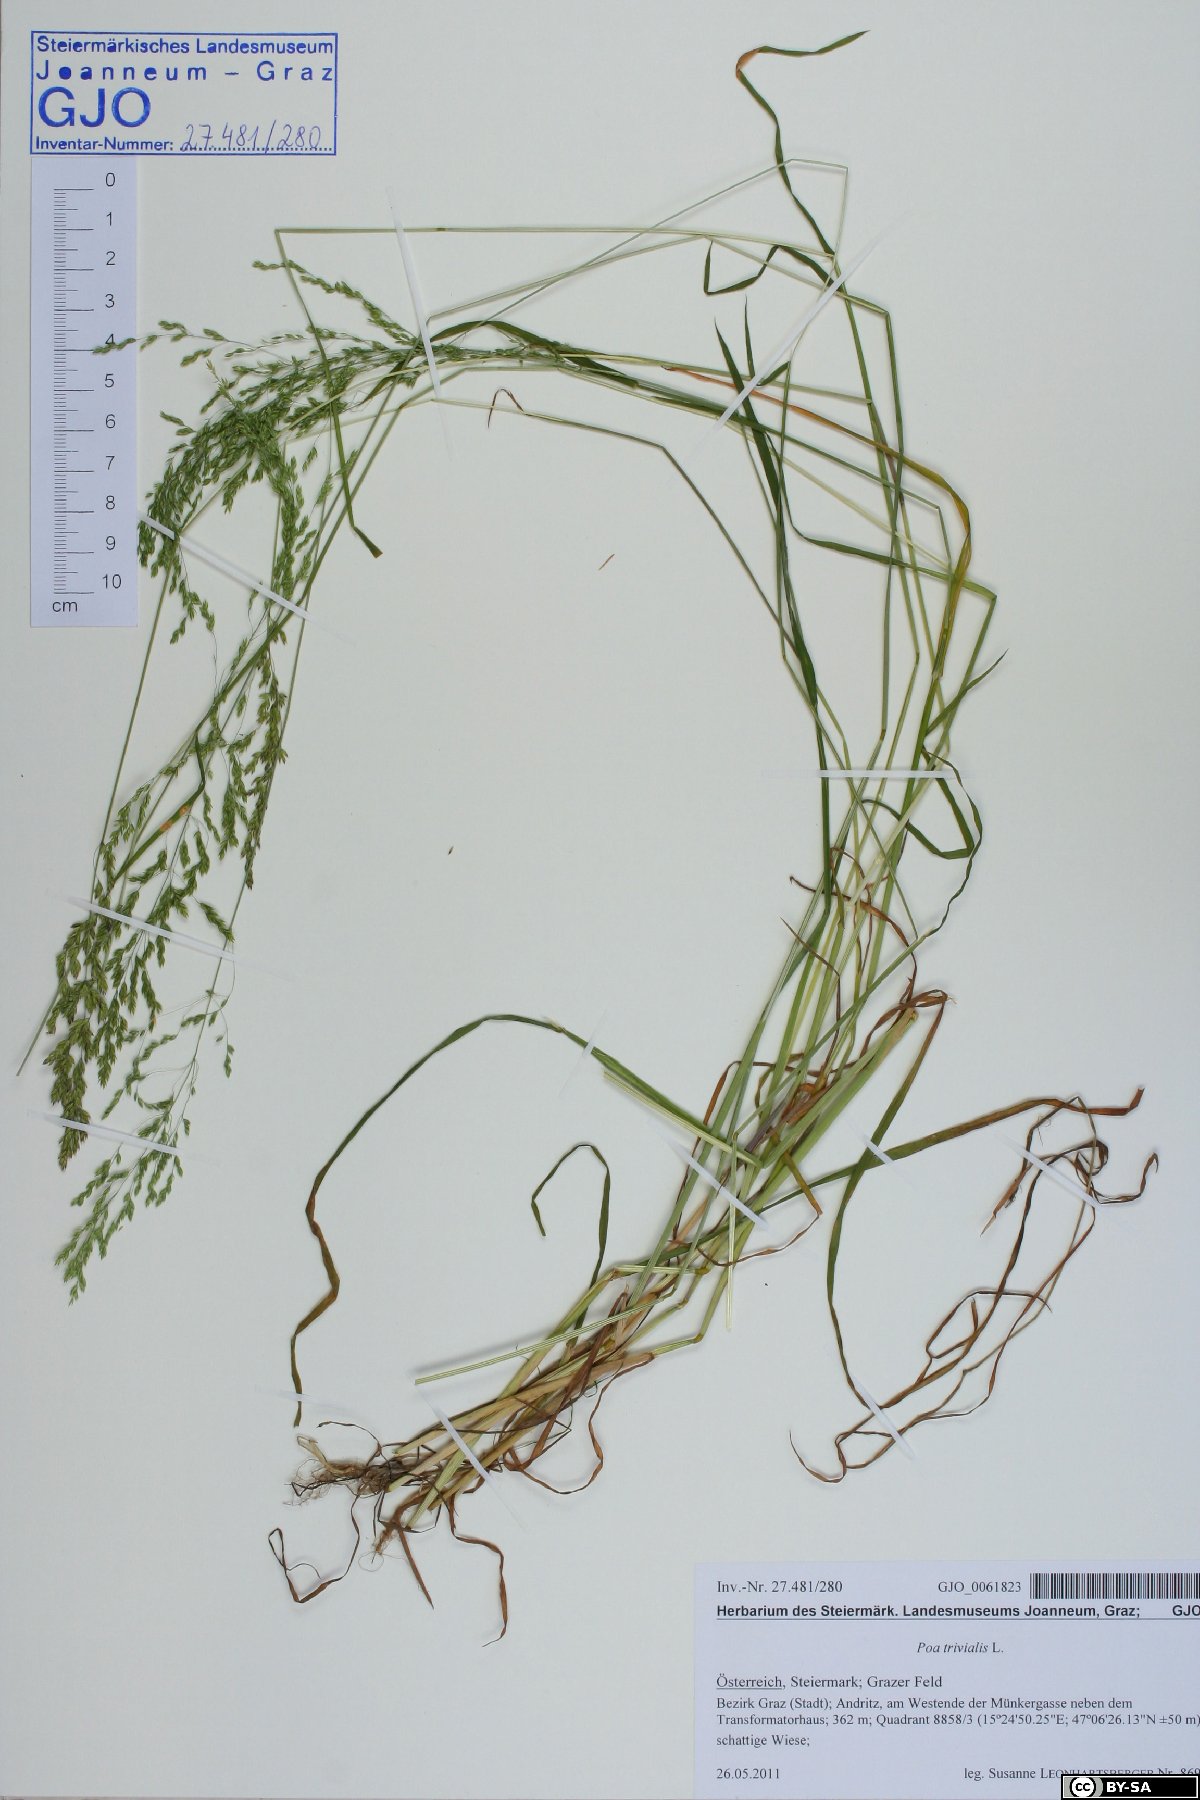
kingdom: Plantae
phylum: Tracheophyta
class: Liliopsida
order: Poales
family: Poaceae
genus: Poa
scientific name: Poa trivialis
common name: Rough bluegrass
